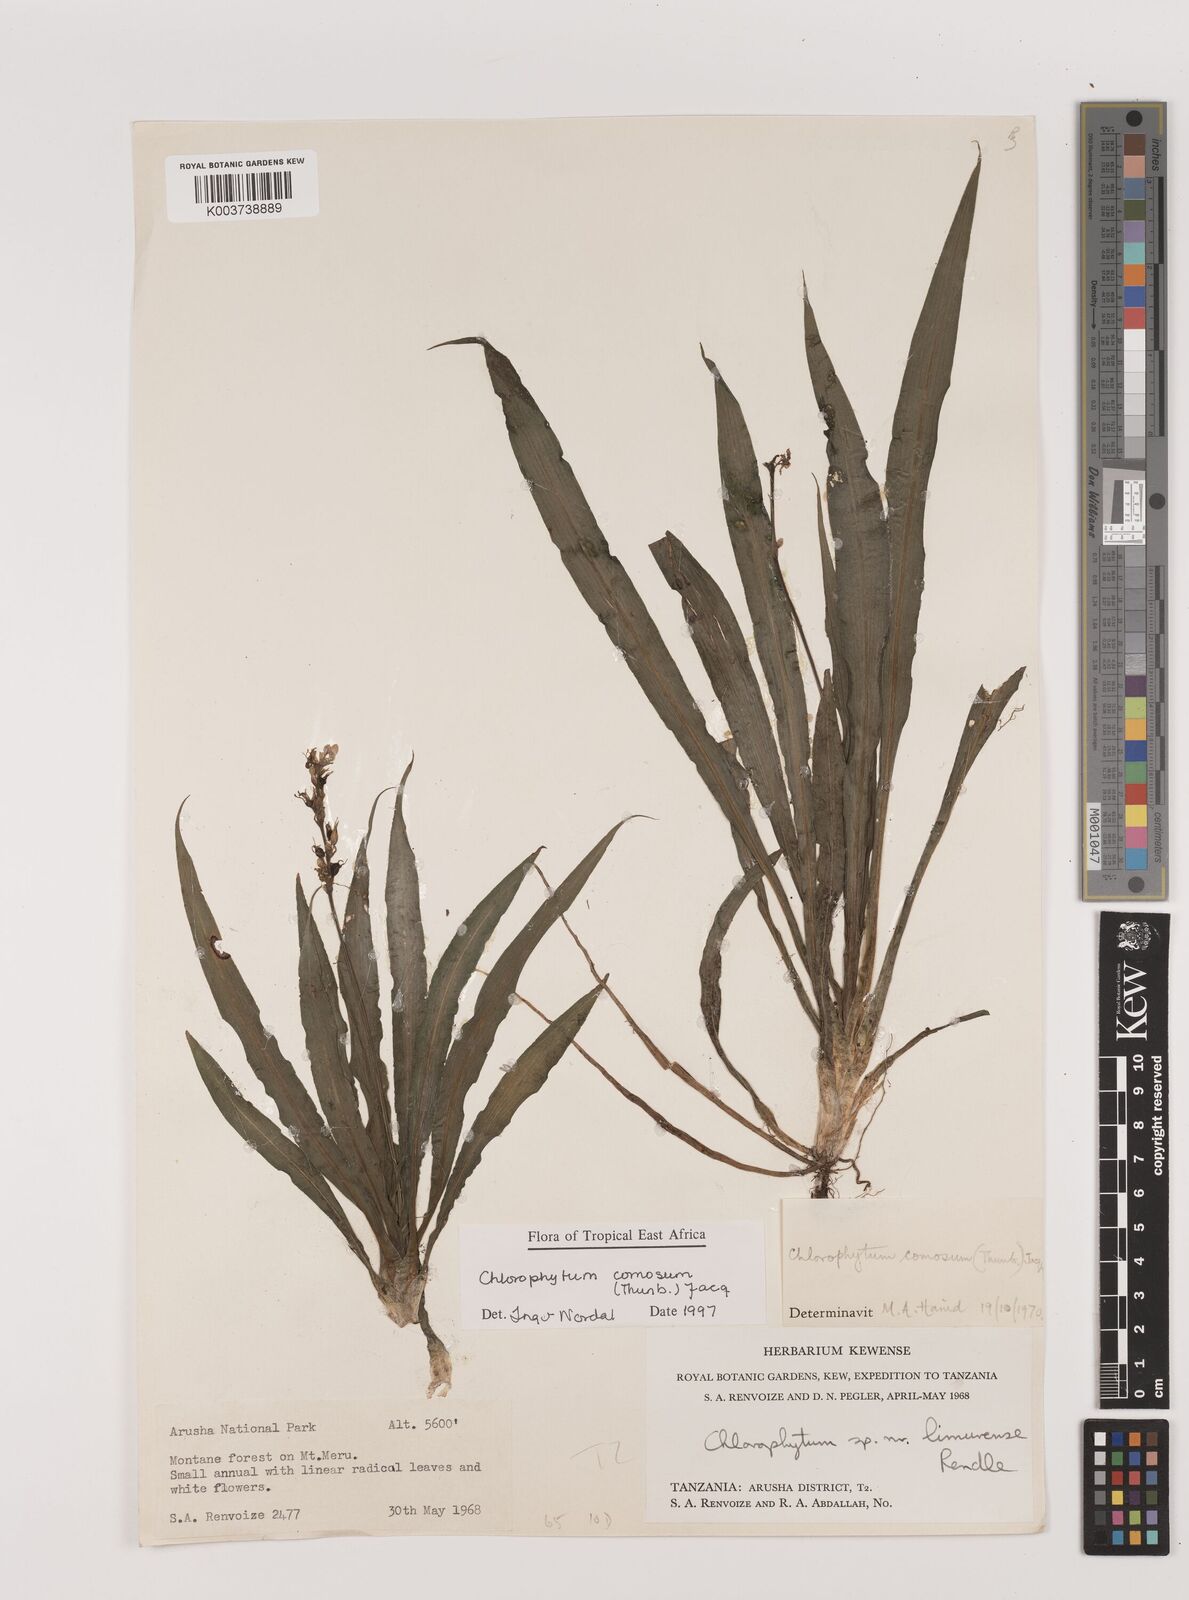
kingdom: Plantae
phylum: Tracheophyta
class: Liliopsida
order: Asparagales
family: Asparagaceae
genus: Chlorophytum
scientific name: Chlorophytum comosum
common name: Spider plant
